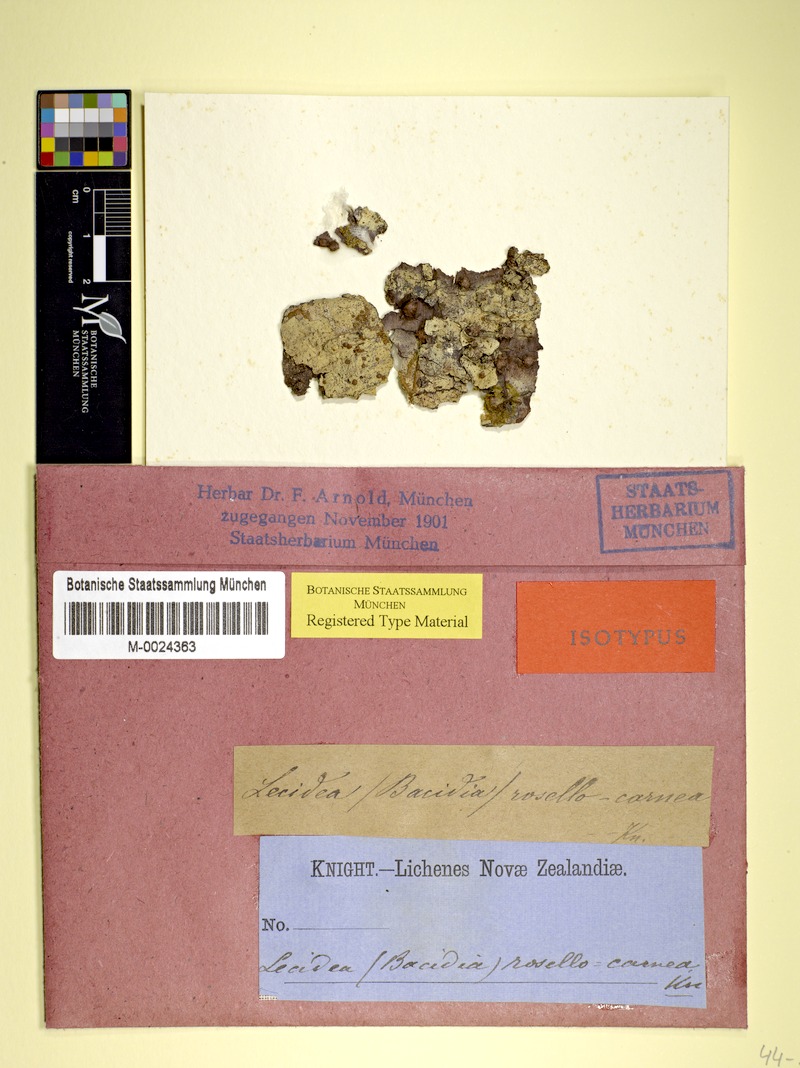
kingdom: Fungi
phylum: Ascomycota
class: Lecanoromycetes
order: Lecanorales
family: Ramalinaceae
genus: Bacidia
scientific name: Bacidia
